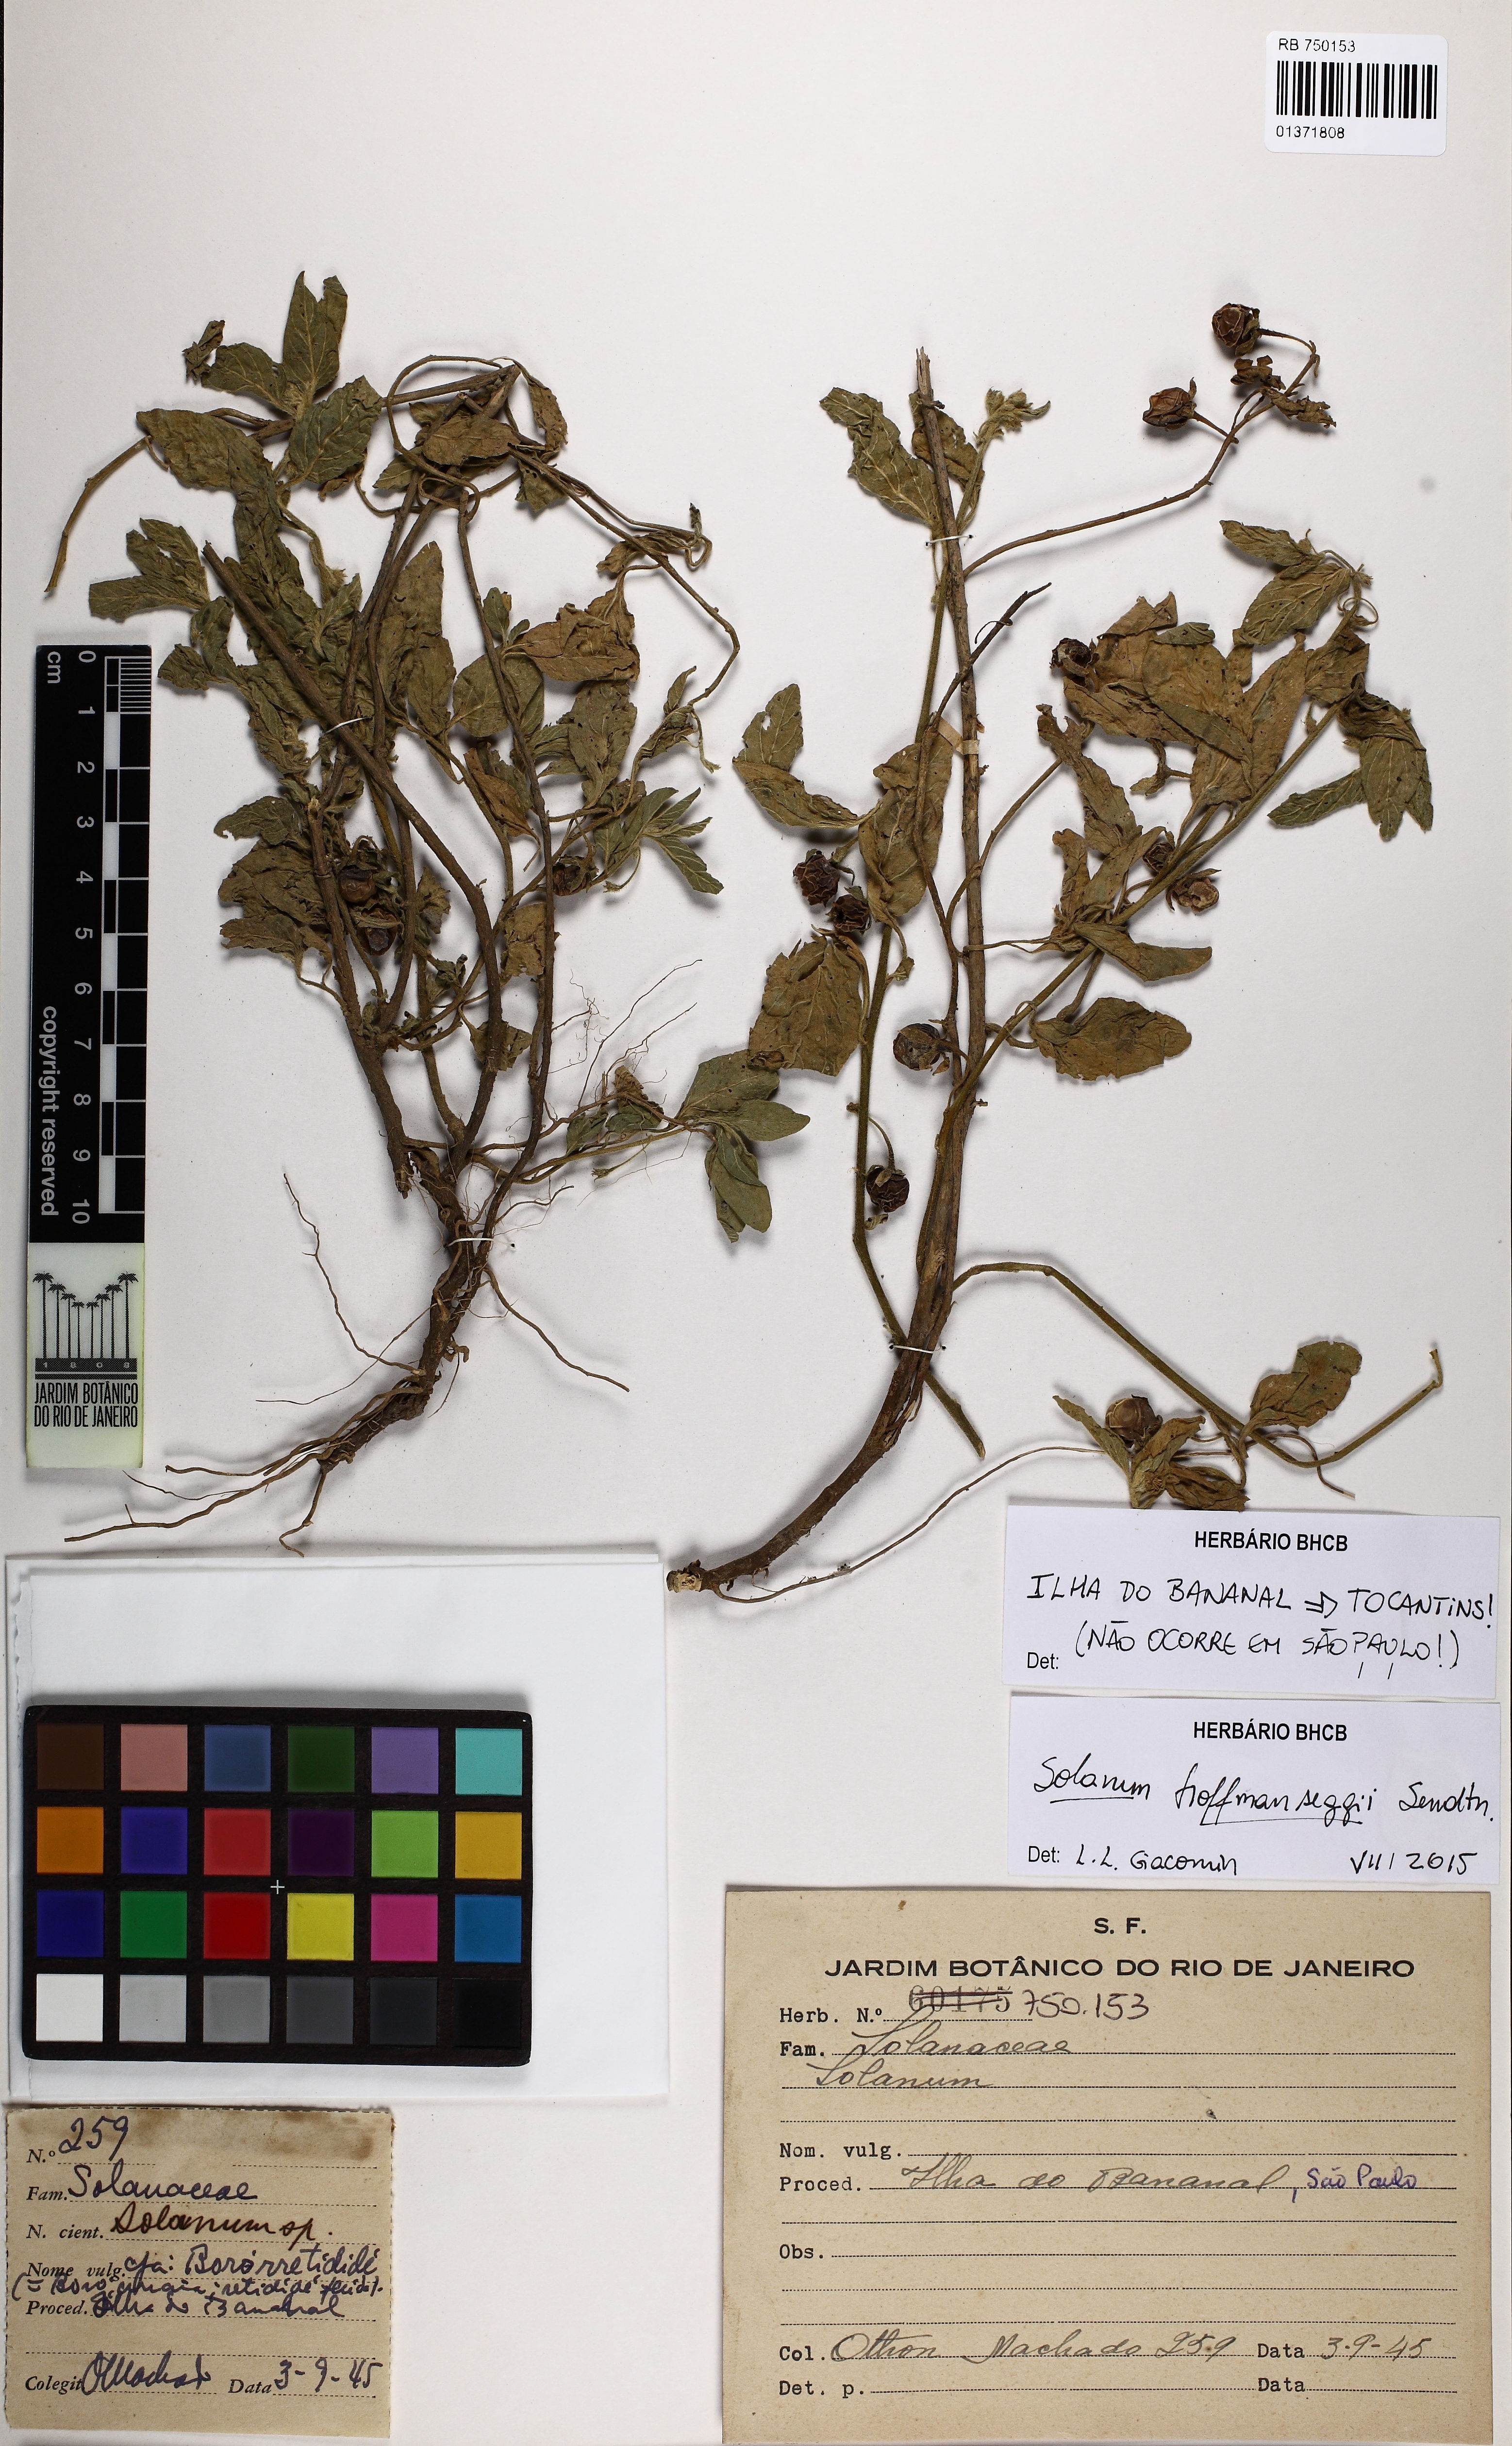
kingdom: Plantae
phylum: Tracheophyta
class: Magnoliopsida
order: Solanales
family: Solanaceae
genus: Solanum
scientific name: Solanum hoffmanseggii
